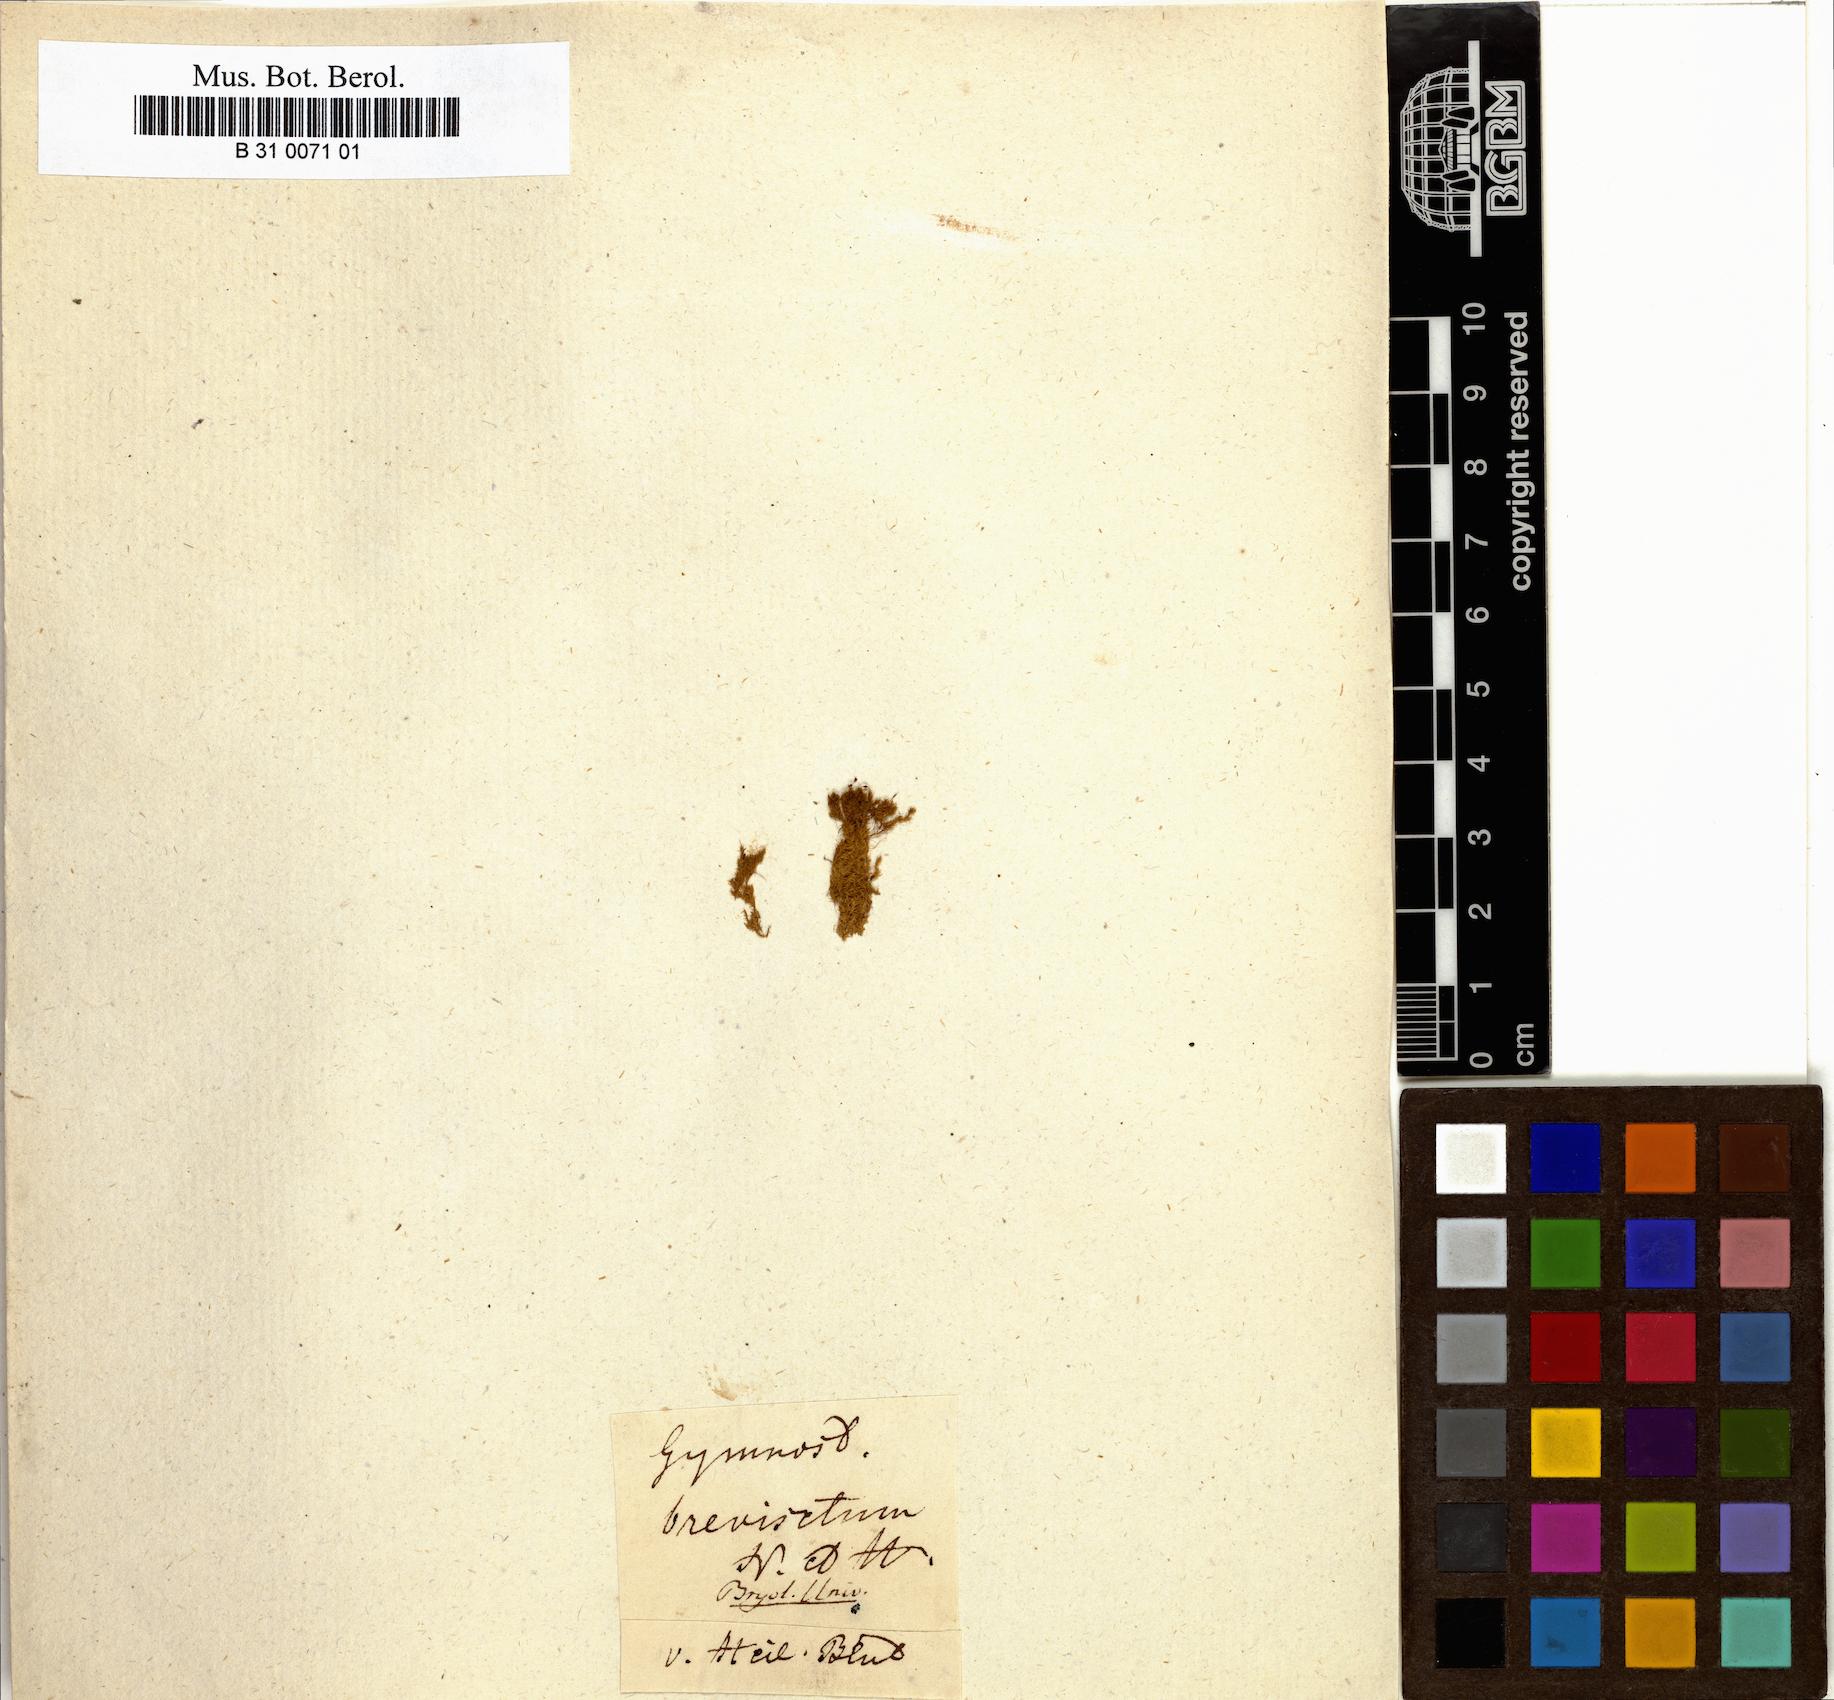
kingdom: Plantae
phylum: Bryophyta
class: Bryopsida
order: Pottiales
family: Pottiaceae
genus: Hymenostylium
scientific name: Hymenostylium recurvirostrum
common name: Hook-beak tufa-moss
